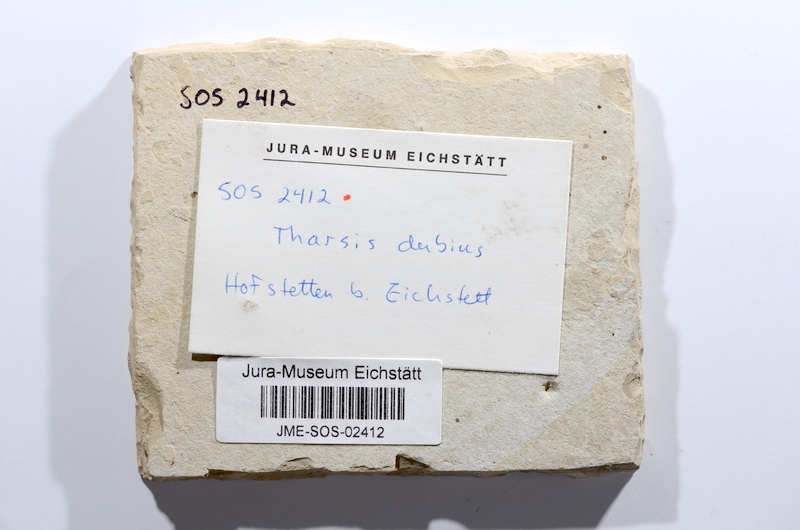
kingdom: Animalia
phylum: Chordata
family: Ascalaboidae
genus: Tharsis
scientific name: Tharsis
